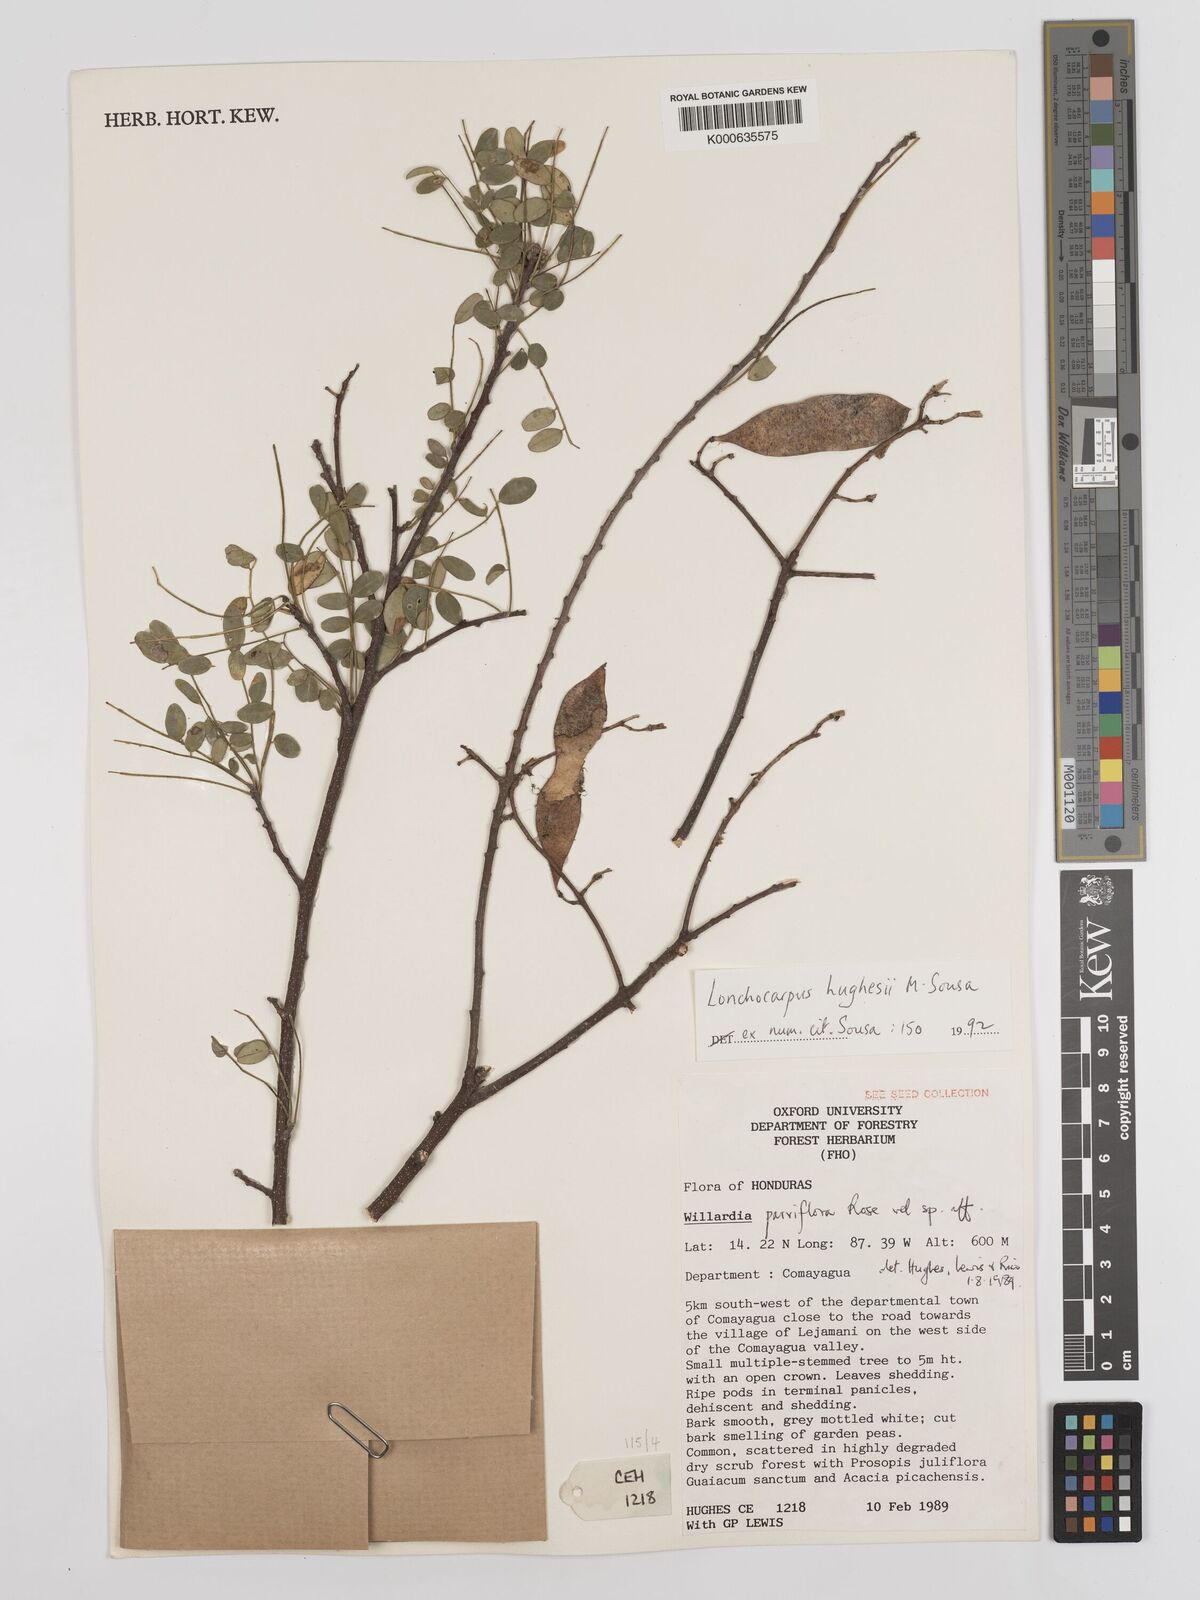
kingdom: Plantae
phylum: Tracheophyta
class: Magnoliopsida
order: Fabales
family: Fabaceae
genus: Lonchocarpus
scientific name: Lonchocarpus hughesii
